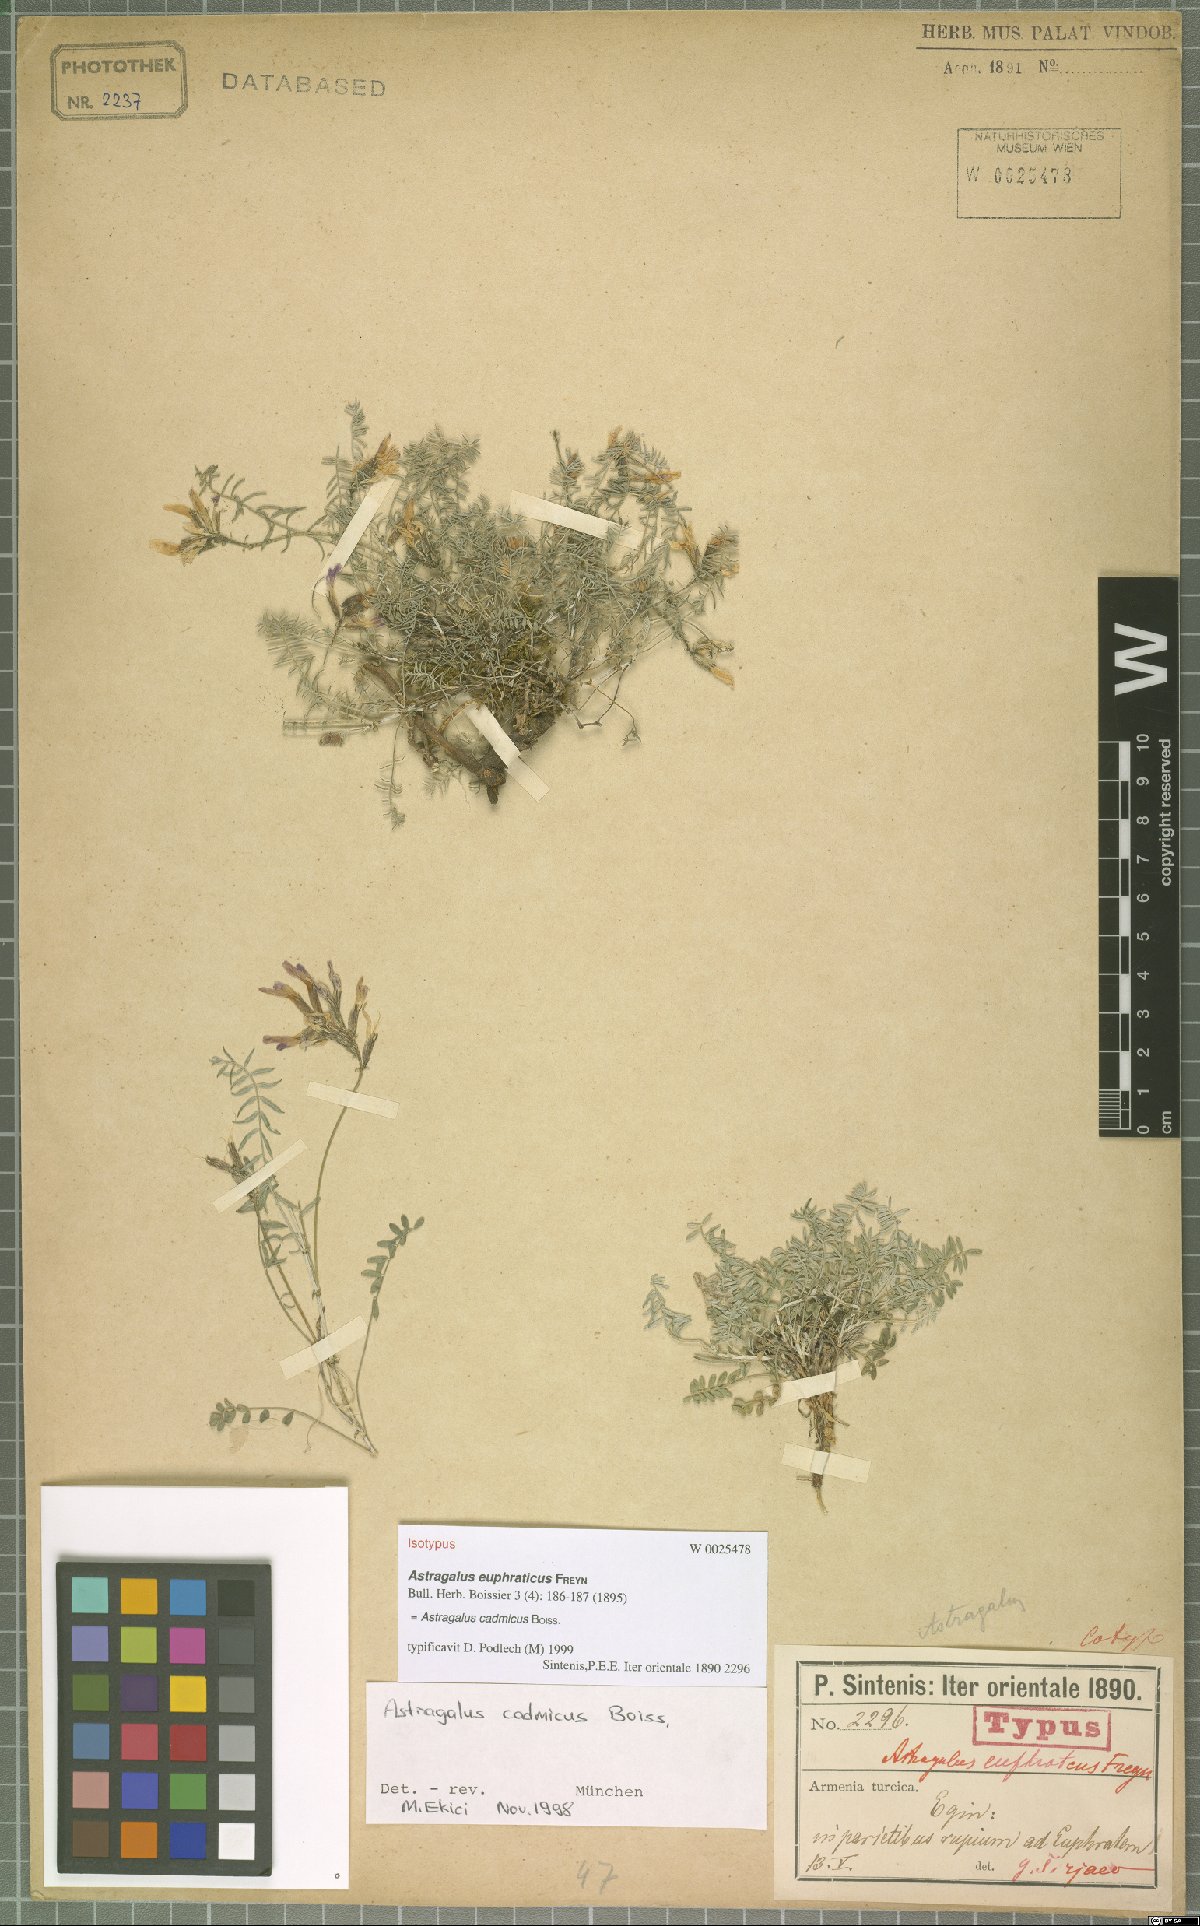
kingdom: Plantae
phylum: Tracheophyta
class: Magnoliopsida
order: Fabales
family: Fabaceae
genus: Astragalus
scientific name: Astragalus cadmicus
